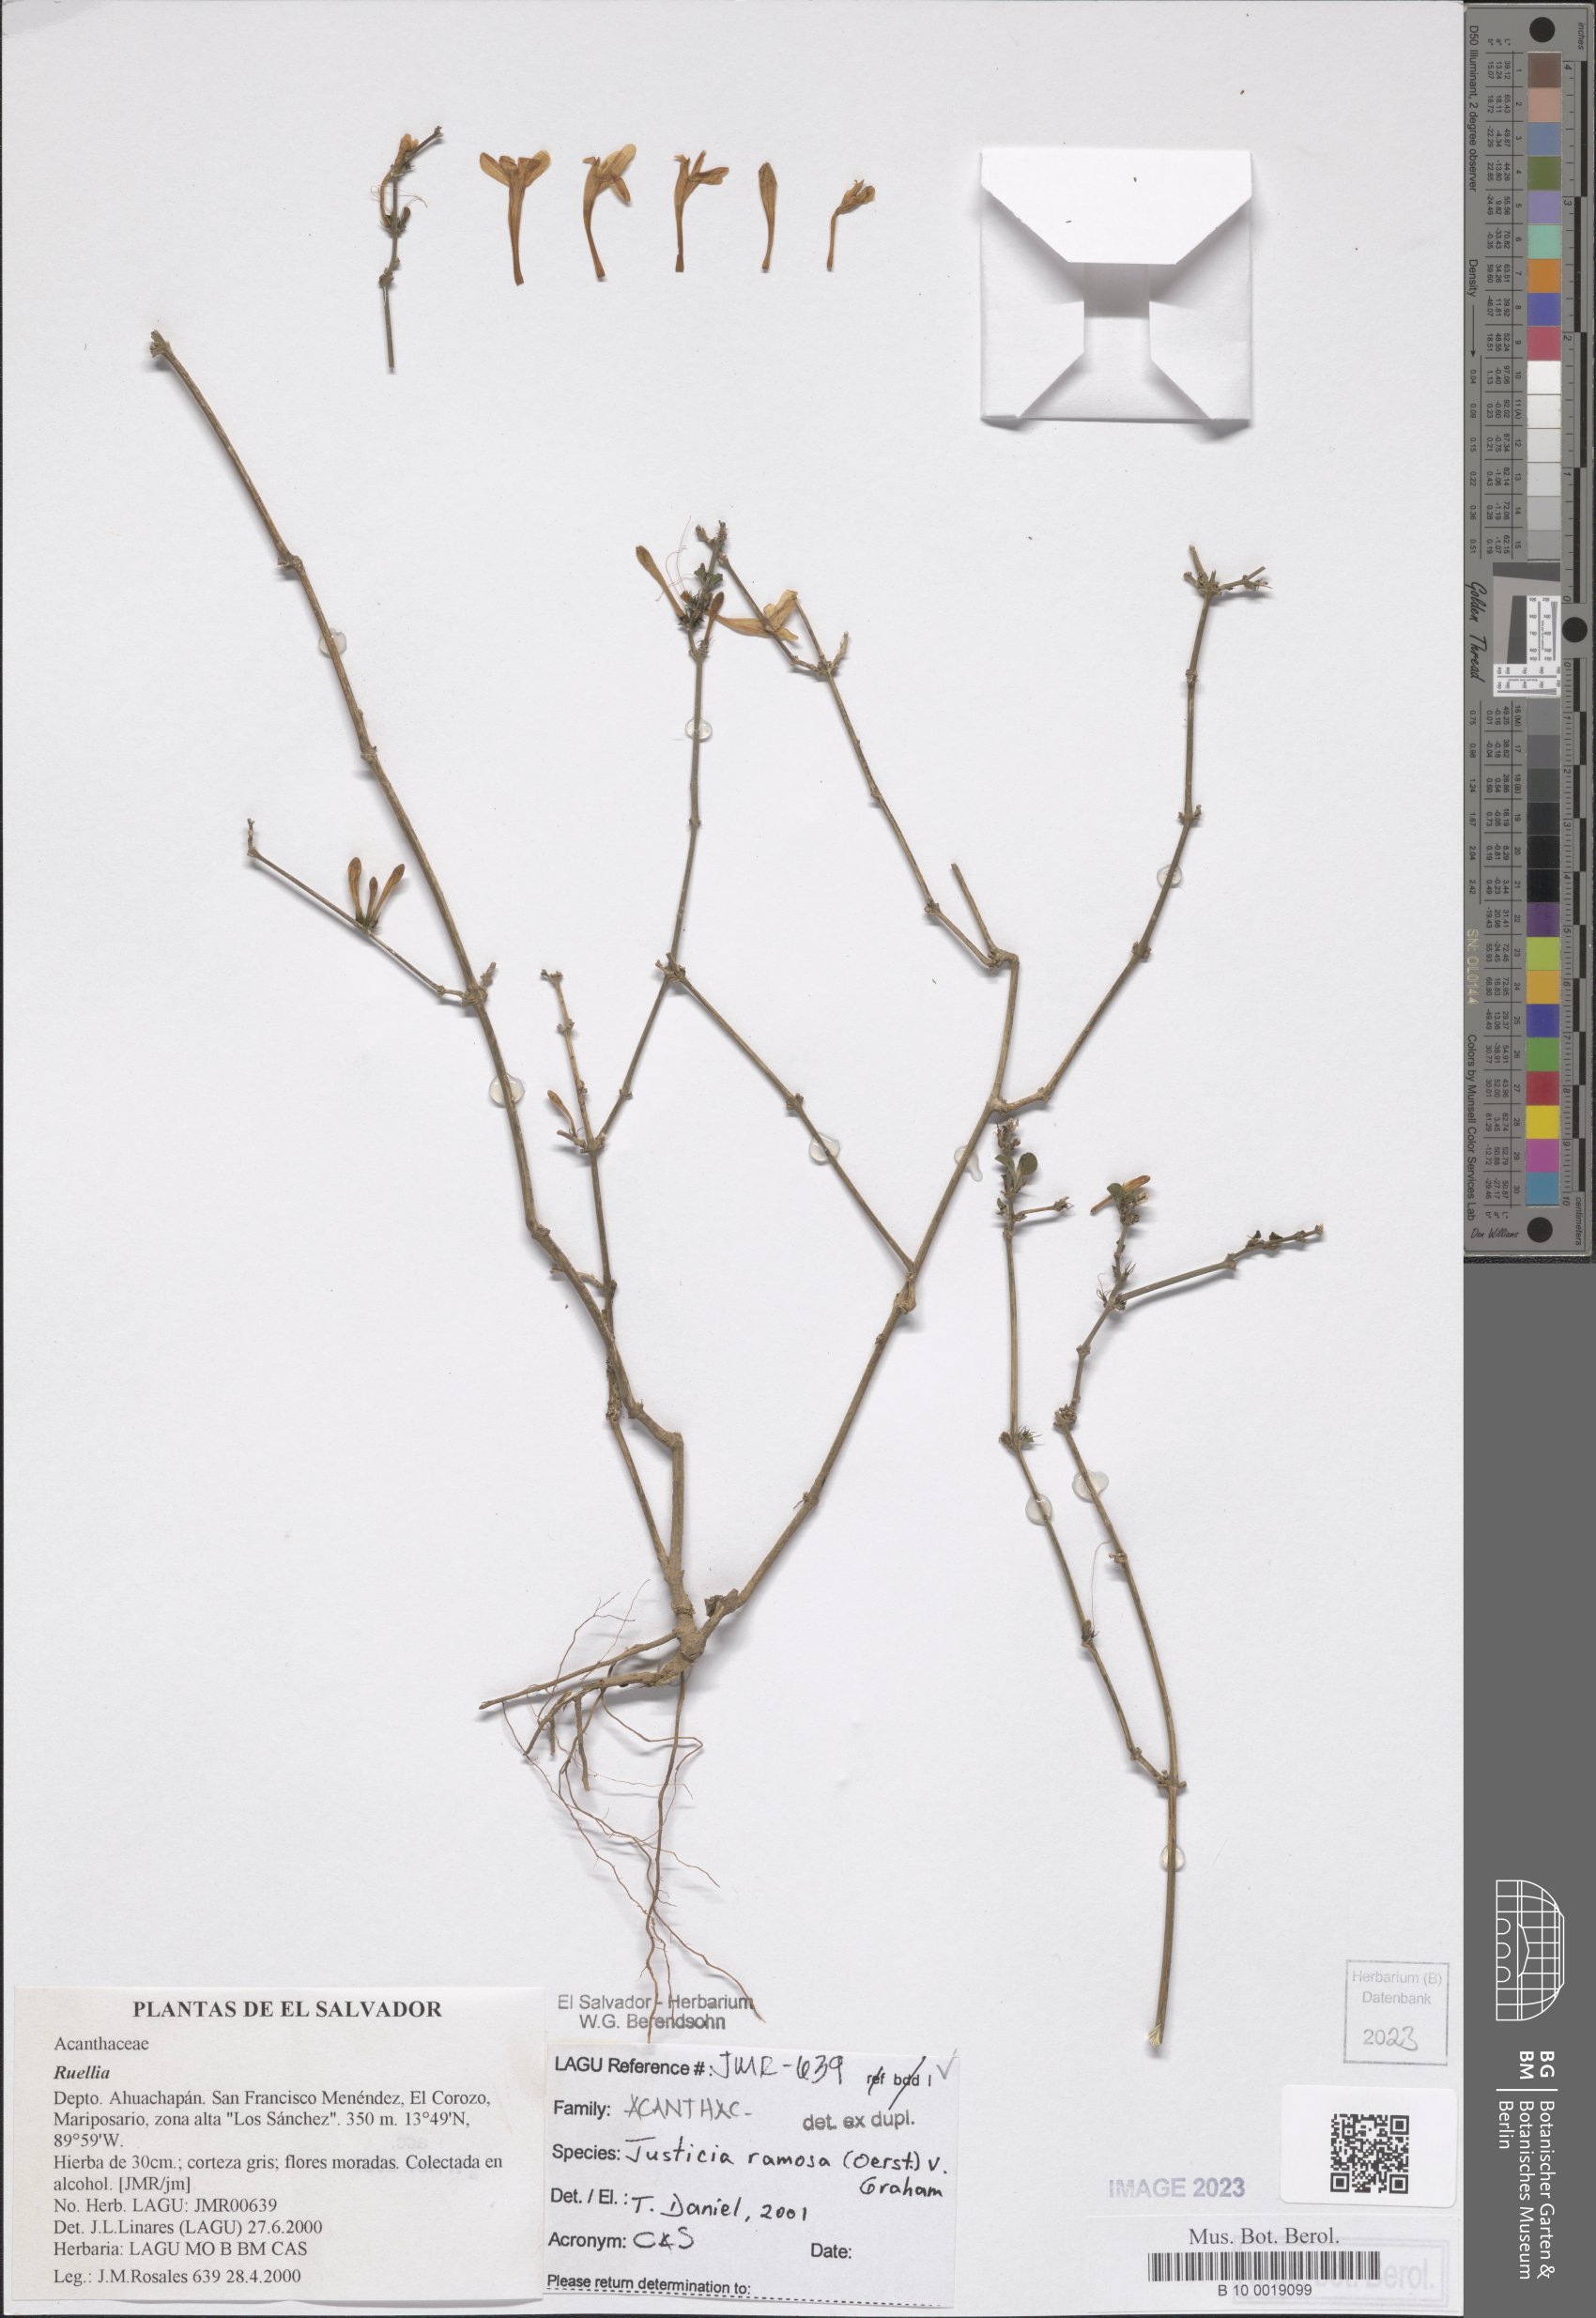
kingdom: Plantae
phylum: Tracheophyta
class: Magnoliopsida
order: Lamiales
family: Acanthaceae
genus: Justicia
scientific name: Justicia ramosa
